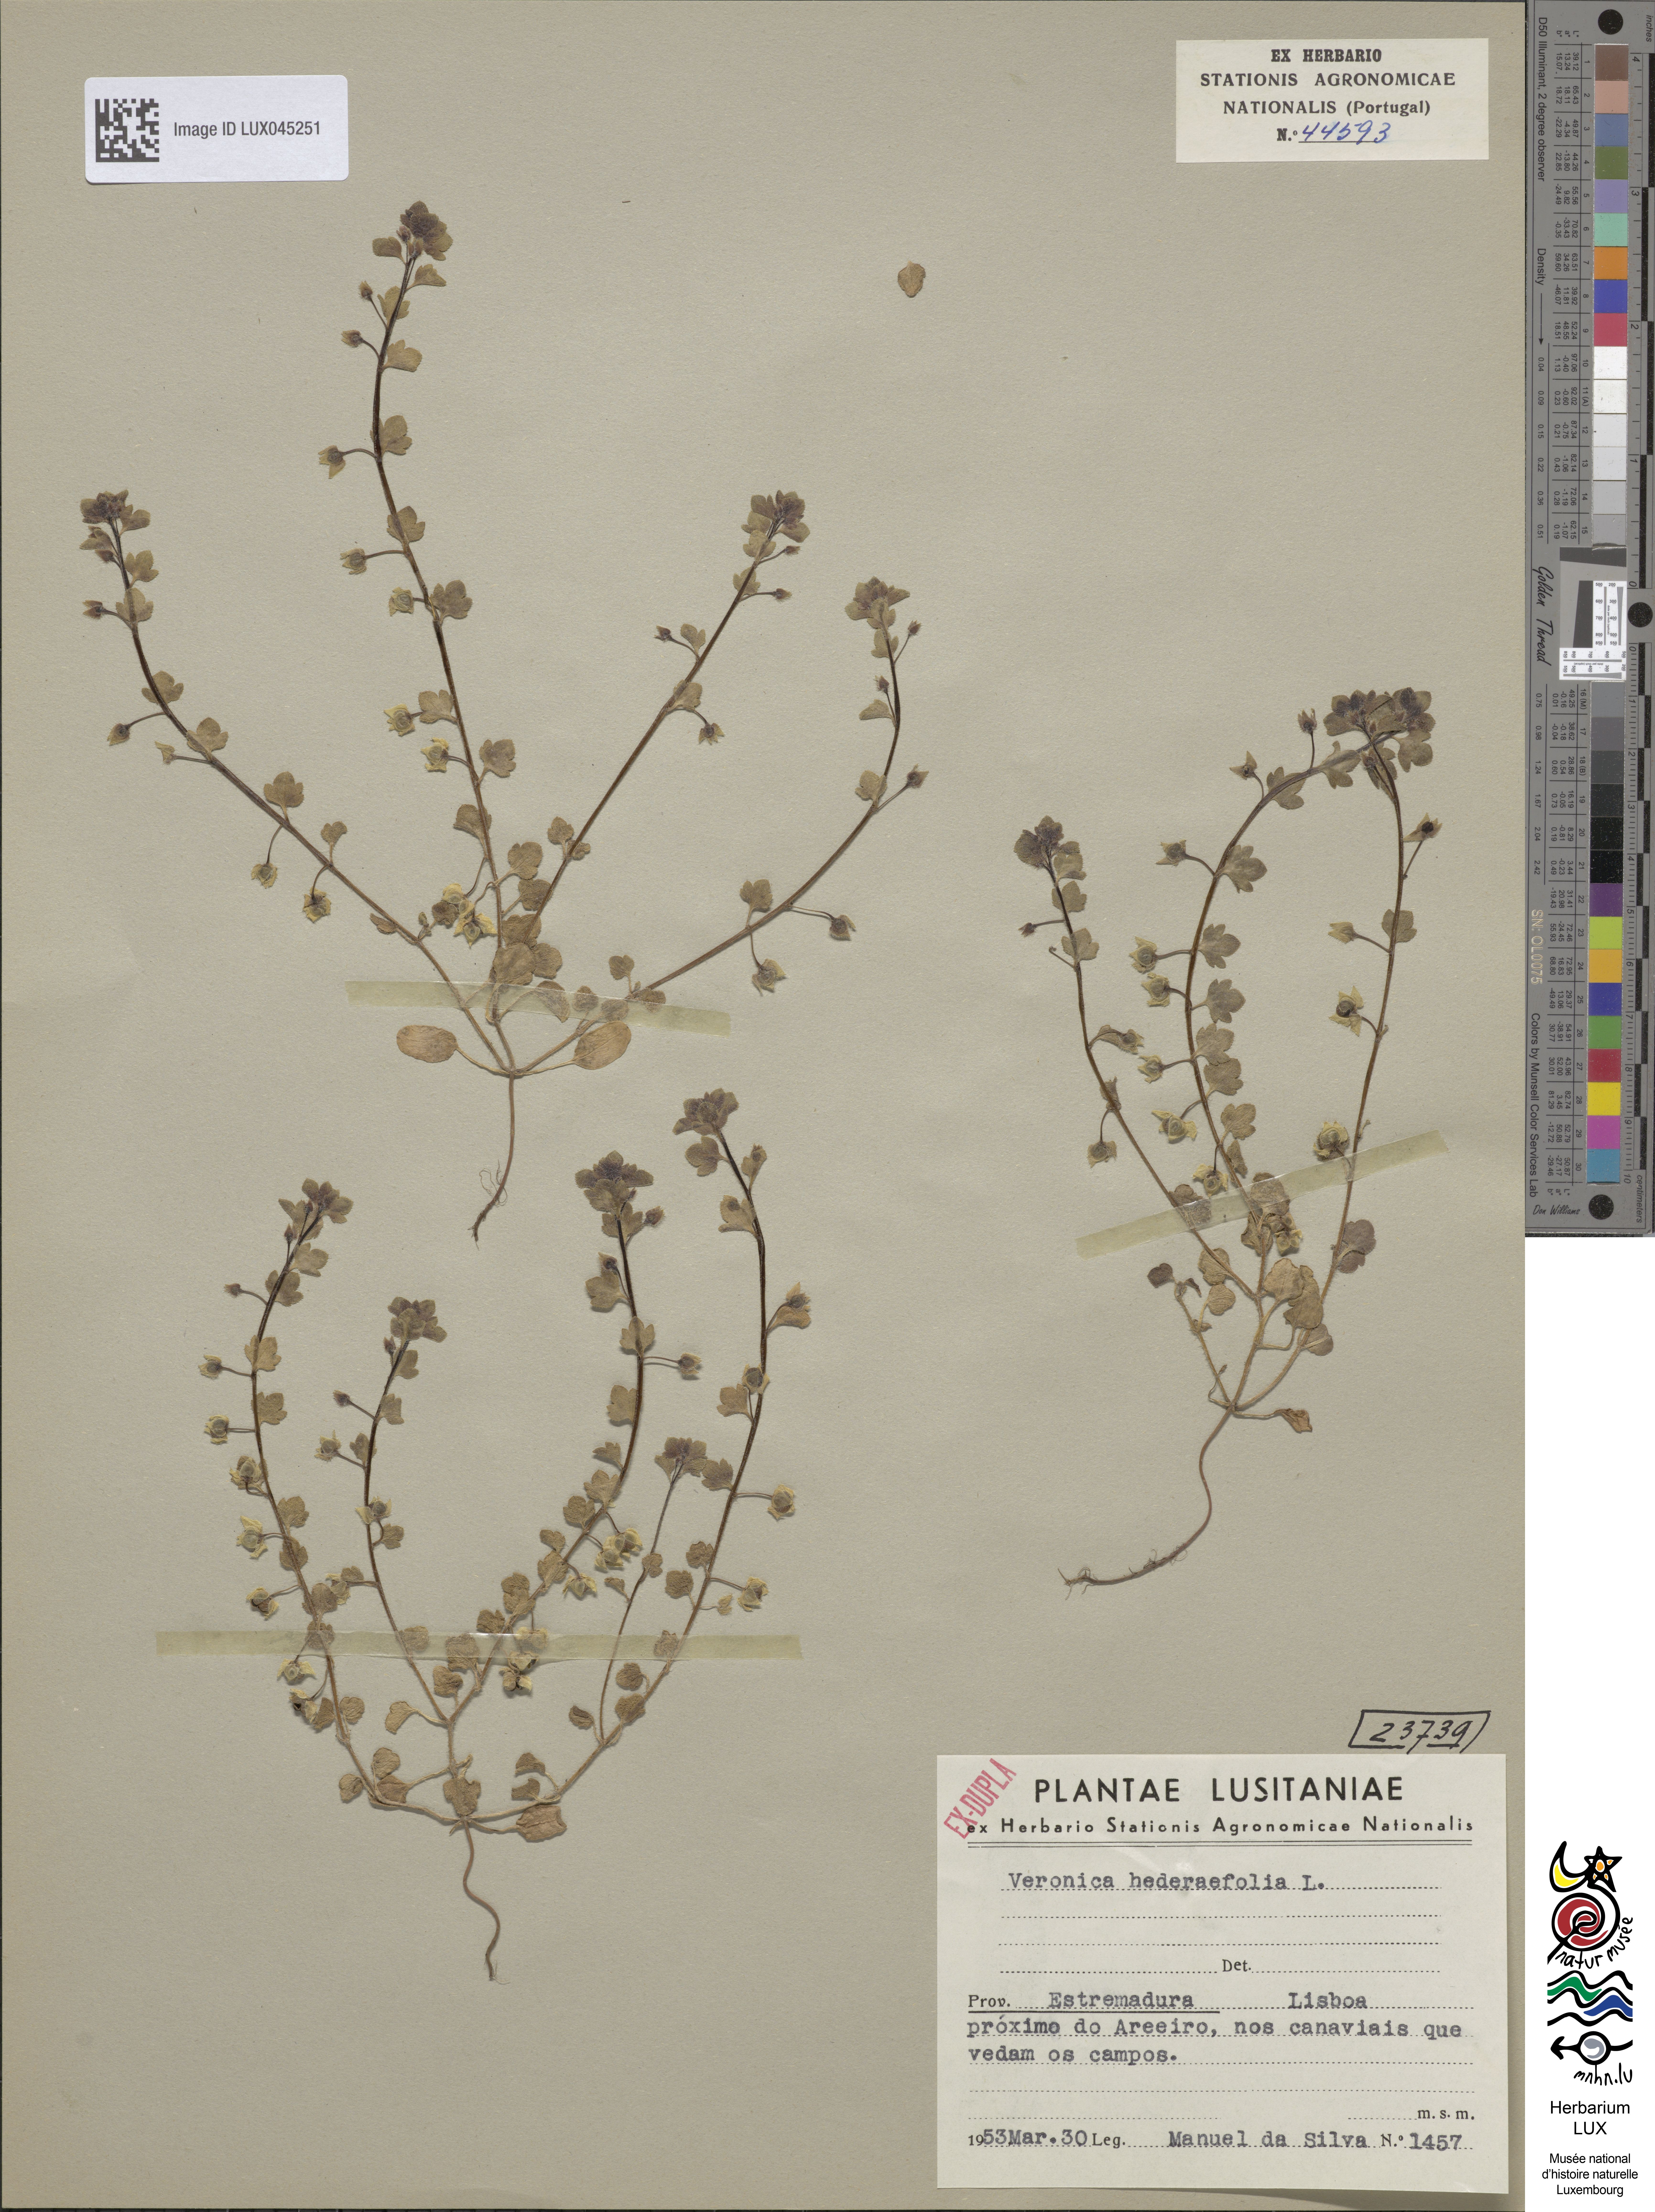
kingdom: Plantae
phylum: Tracheophyta
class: Magnoliopsida
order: Lamiales
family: Plantaginaceae
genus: Veronica
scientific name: Veronica hederifolia
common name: Ivy-leaved speedwell
